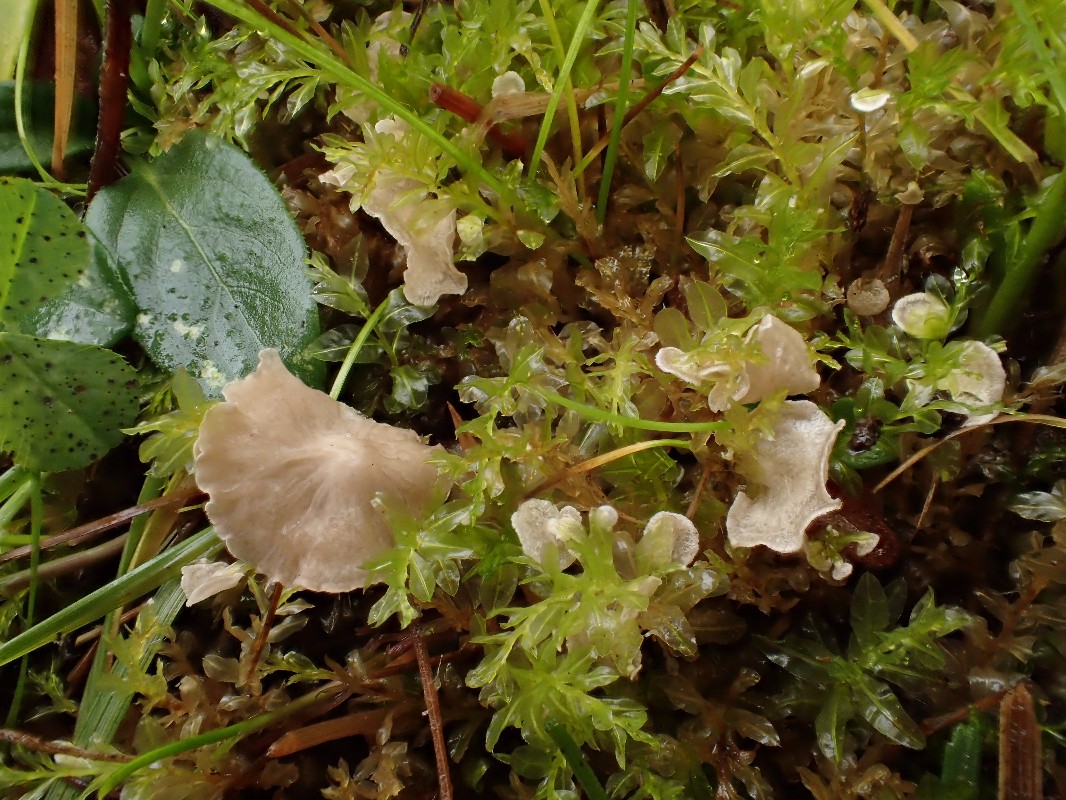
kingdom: Fungi
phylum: Basidiomycota
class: Agaricomycetes
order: Agaricales
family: Hygrophoraceae
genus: Arrhenia
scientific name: Arrhenia retiruga
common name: lille fontænehat
